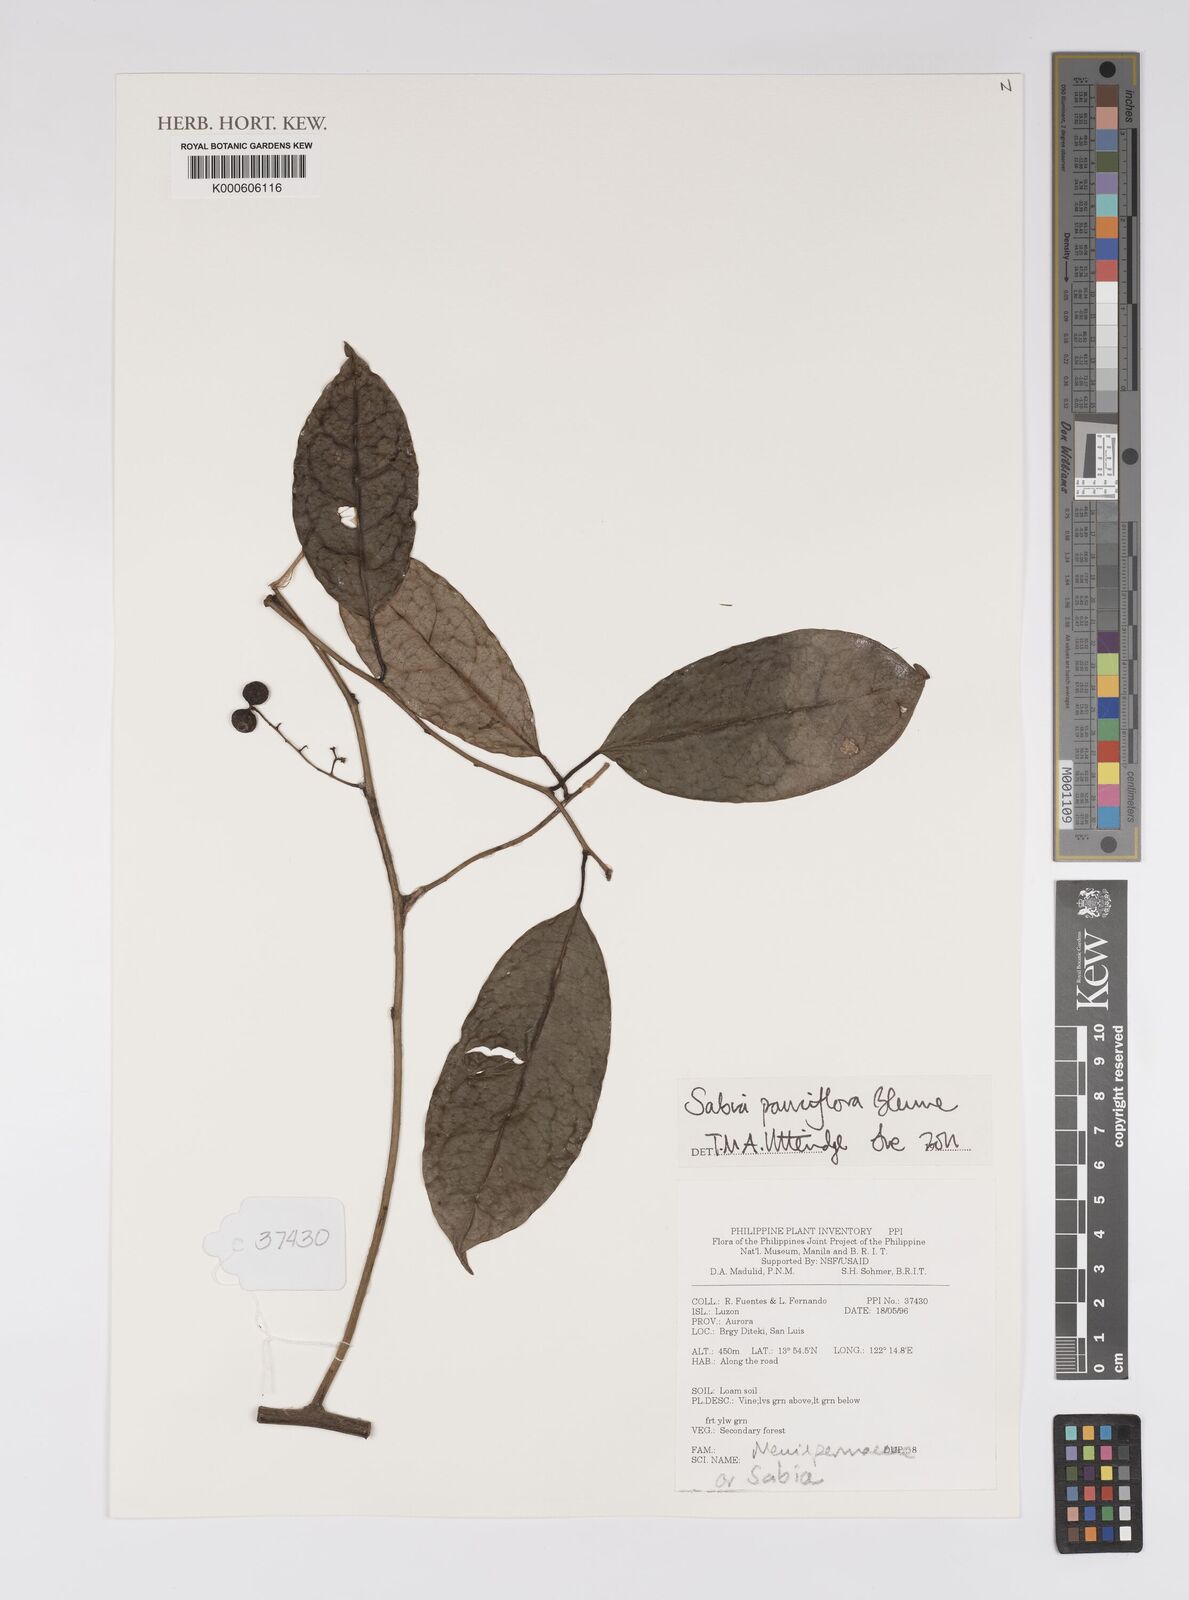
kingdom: Plantae
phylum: Tracheophyta
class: Magnoliopsida
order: Proteales
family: Sabiaceae
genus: Sabia
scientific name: Sabia pauciflora
